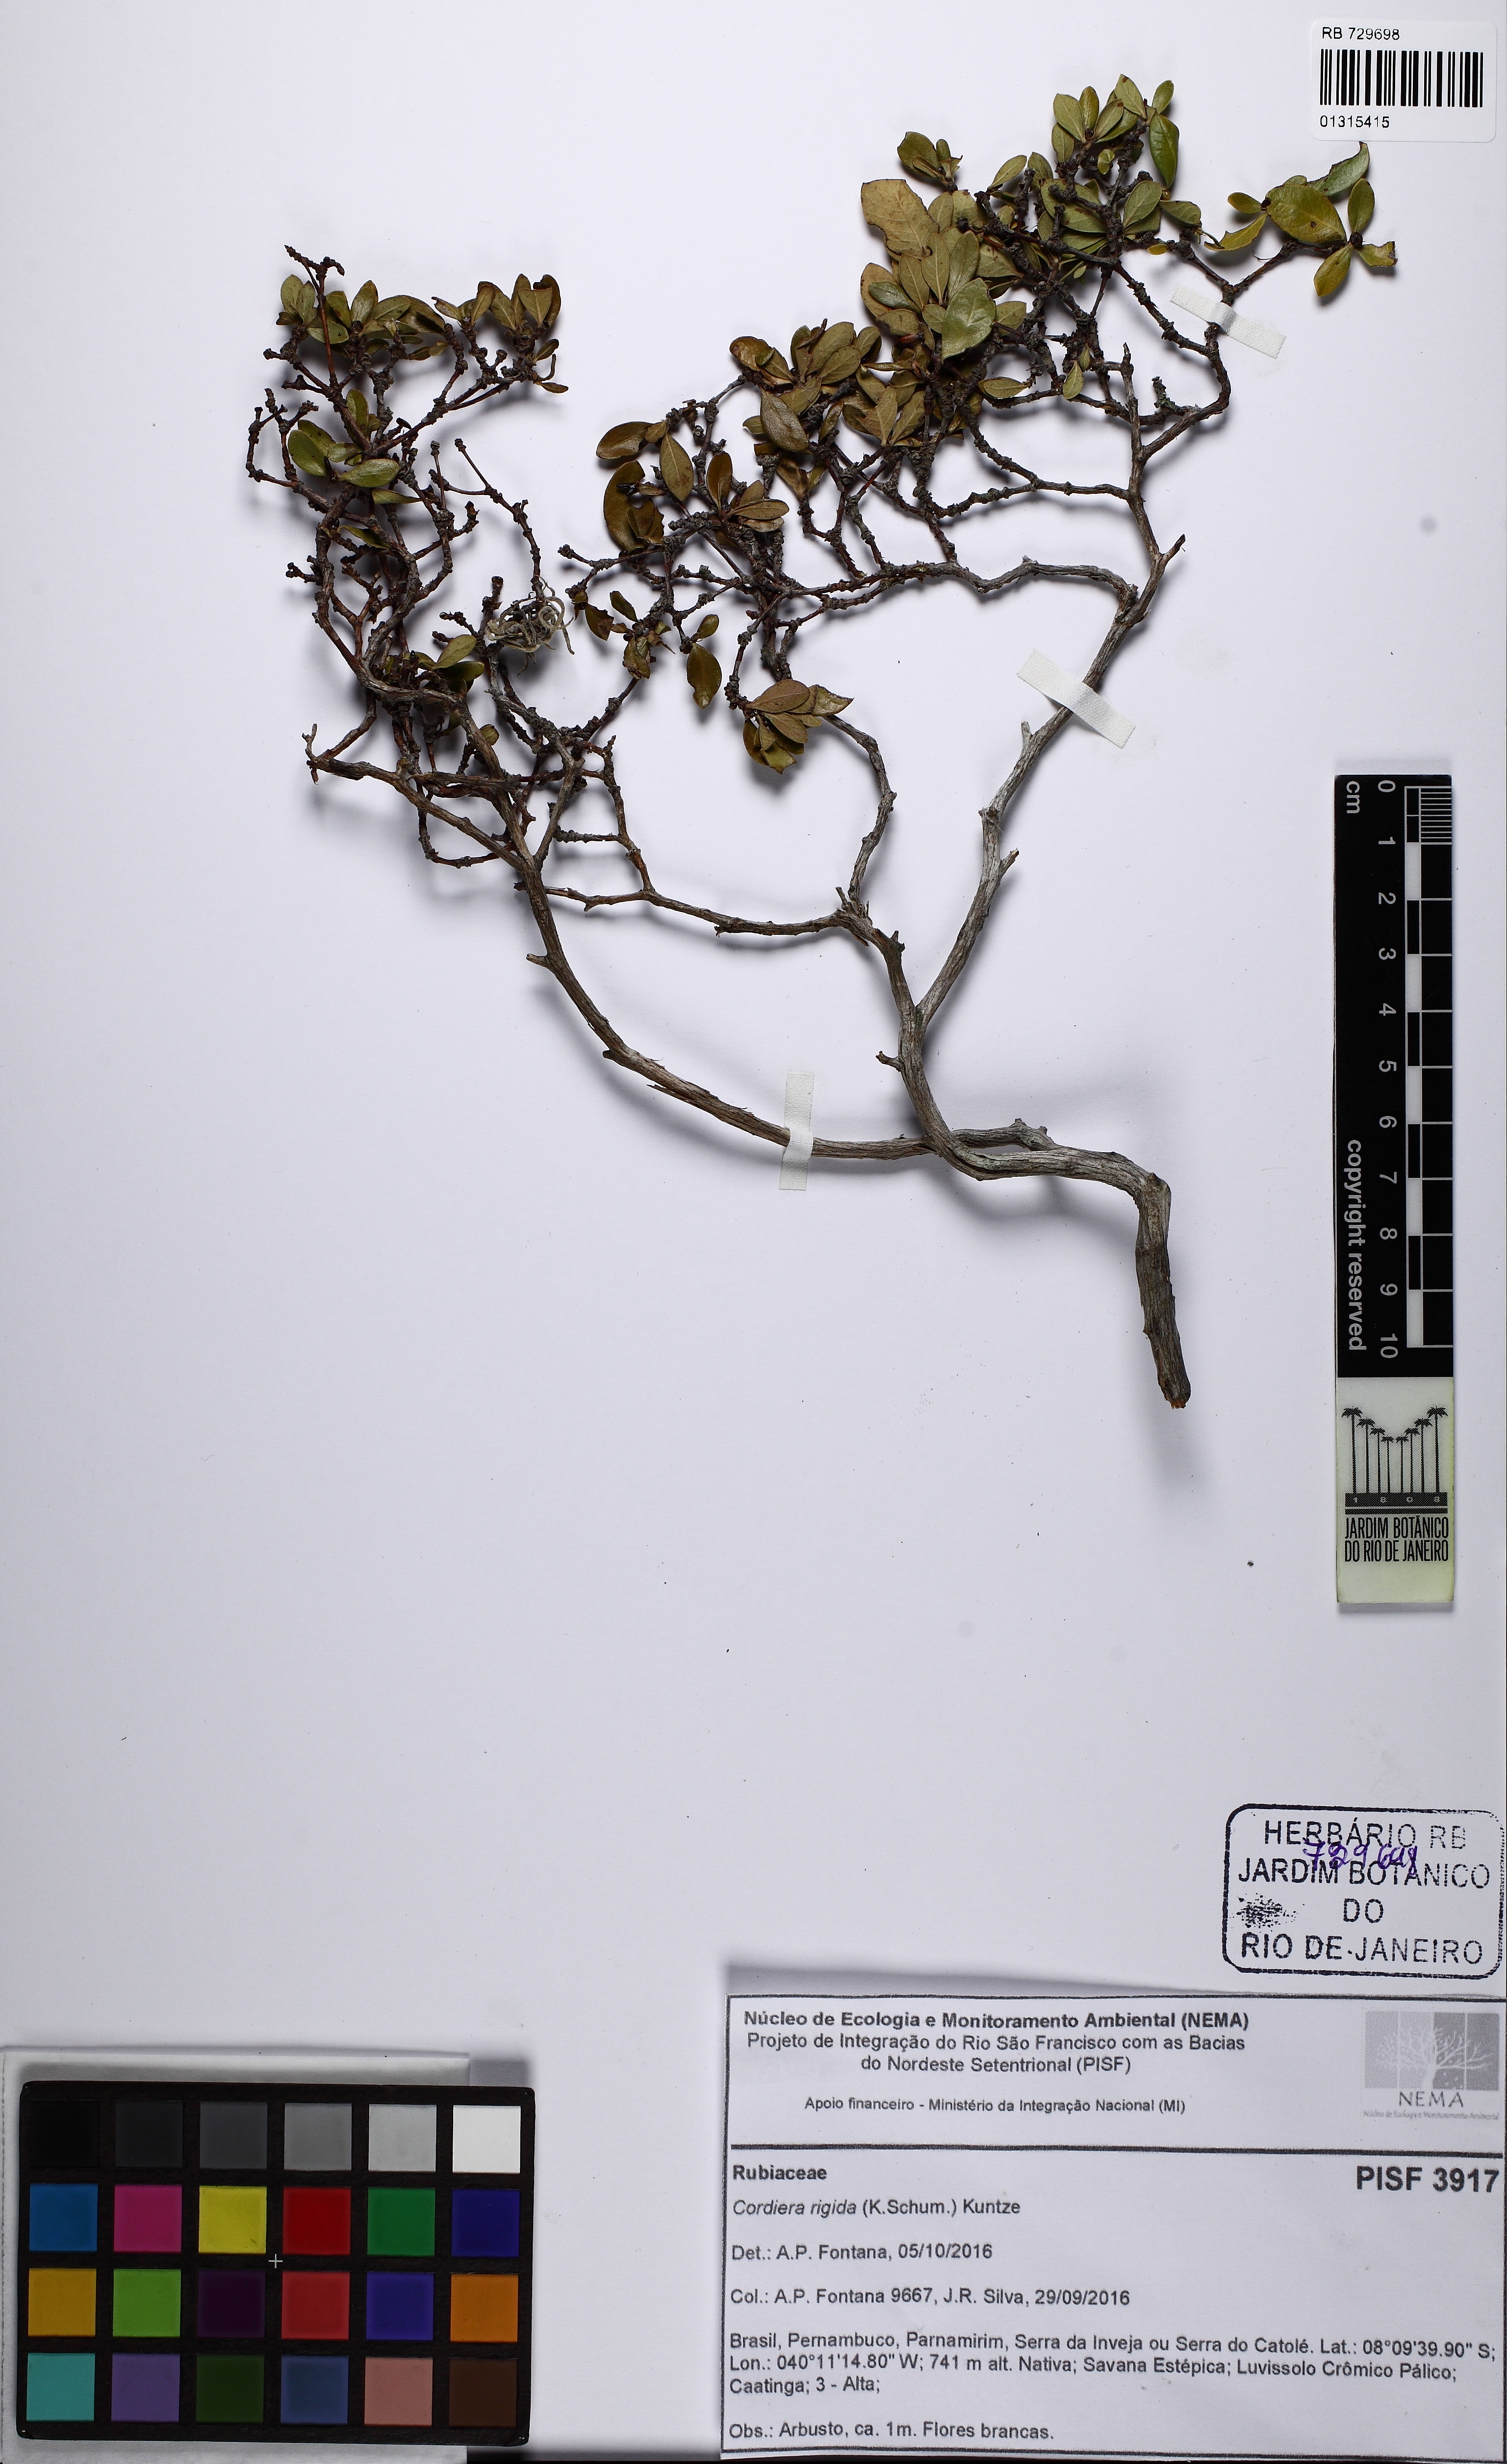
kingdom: Plantae
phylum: Tracheophyta
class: Magnoliopsida
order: Gentianales
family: Rubiaceae
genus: Cordiera
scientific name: Cordiera rigida
